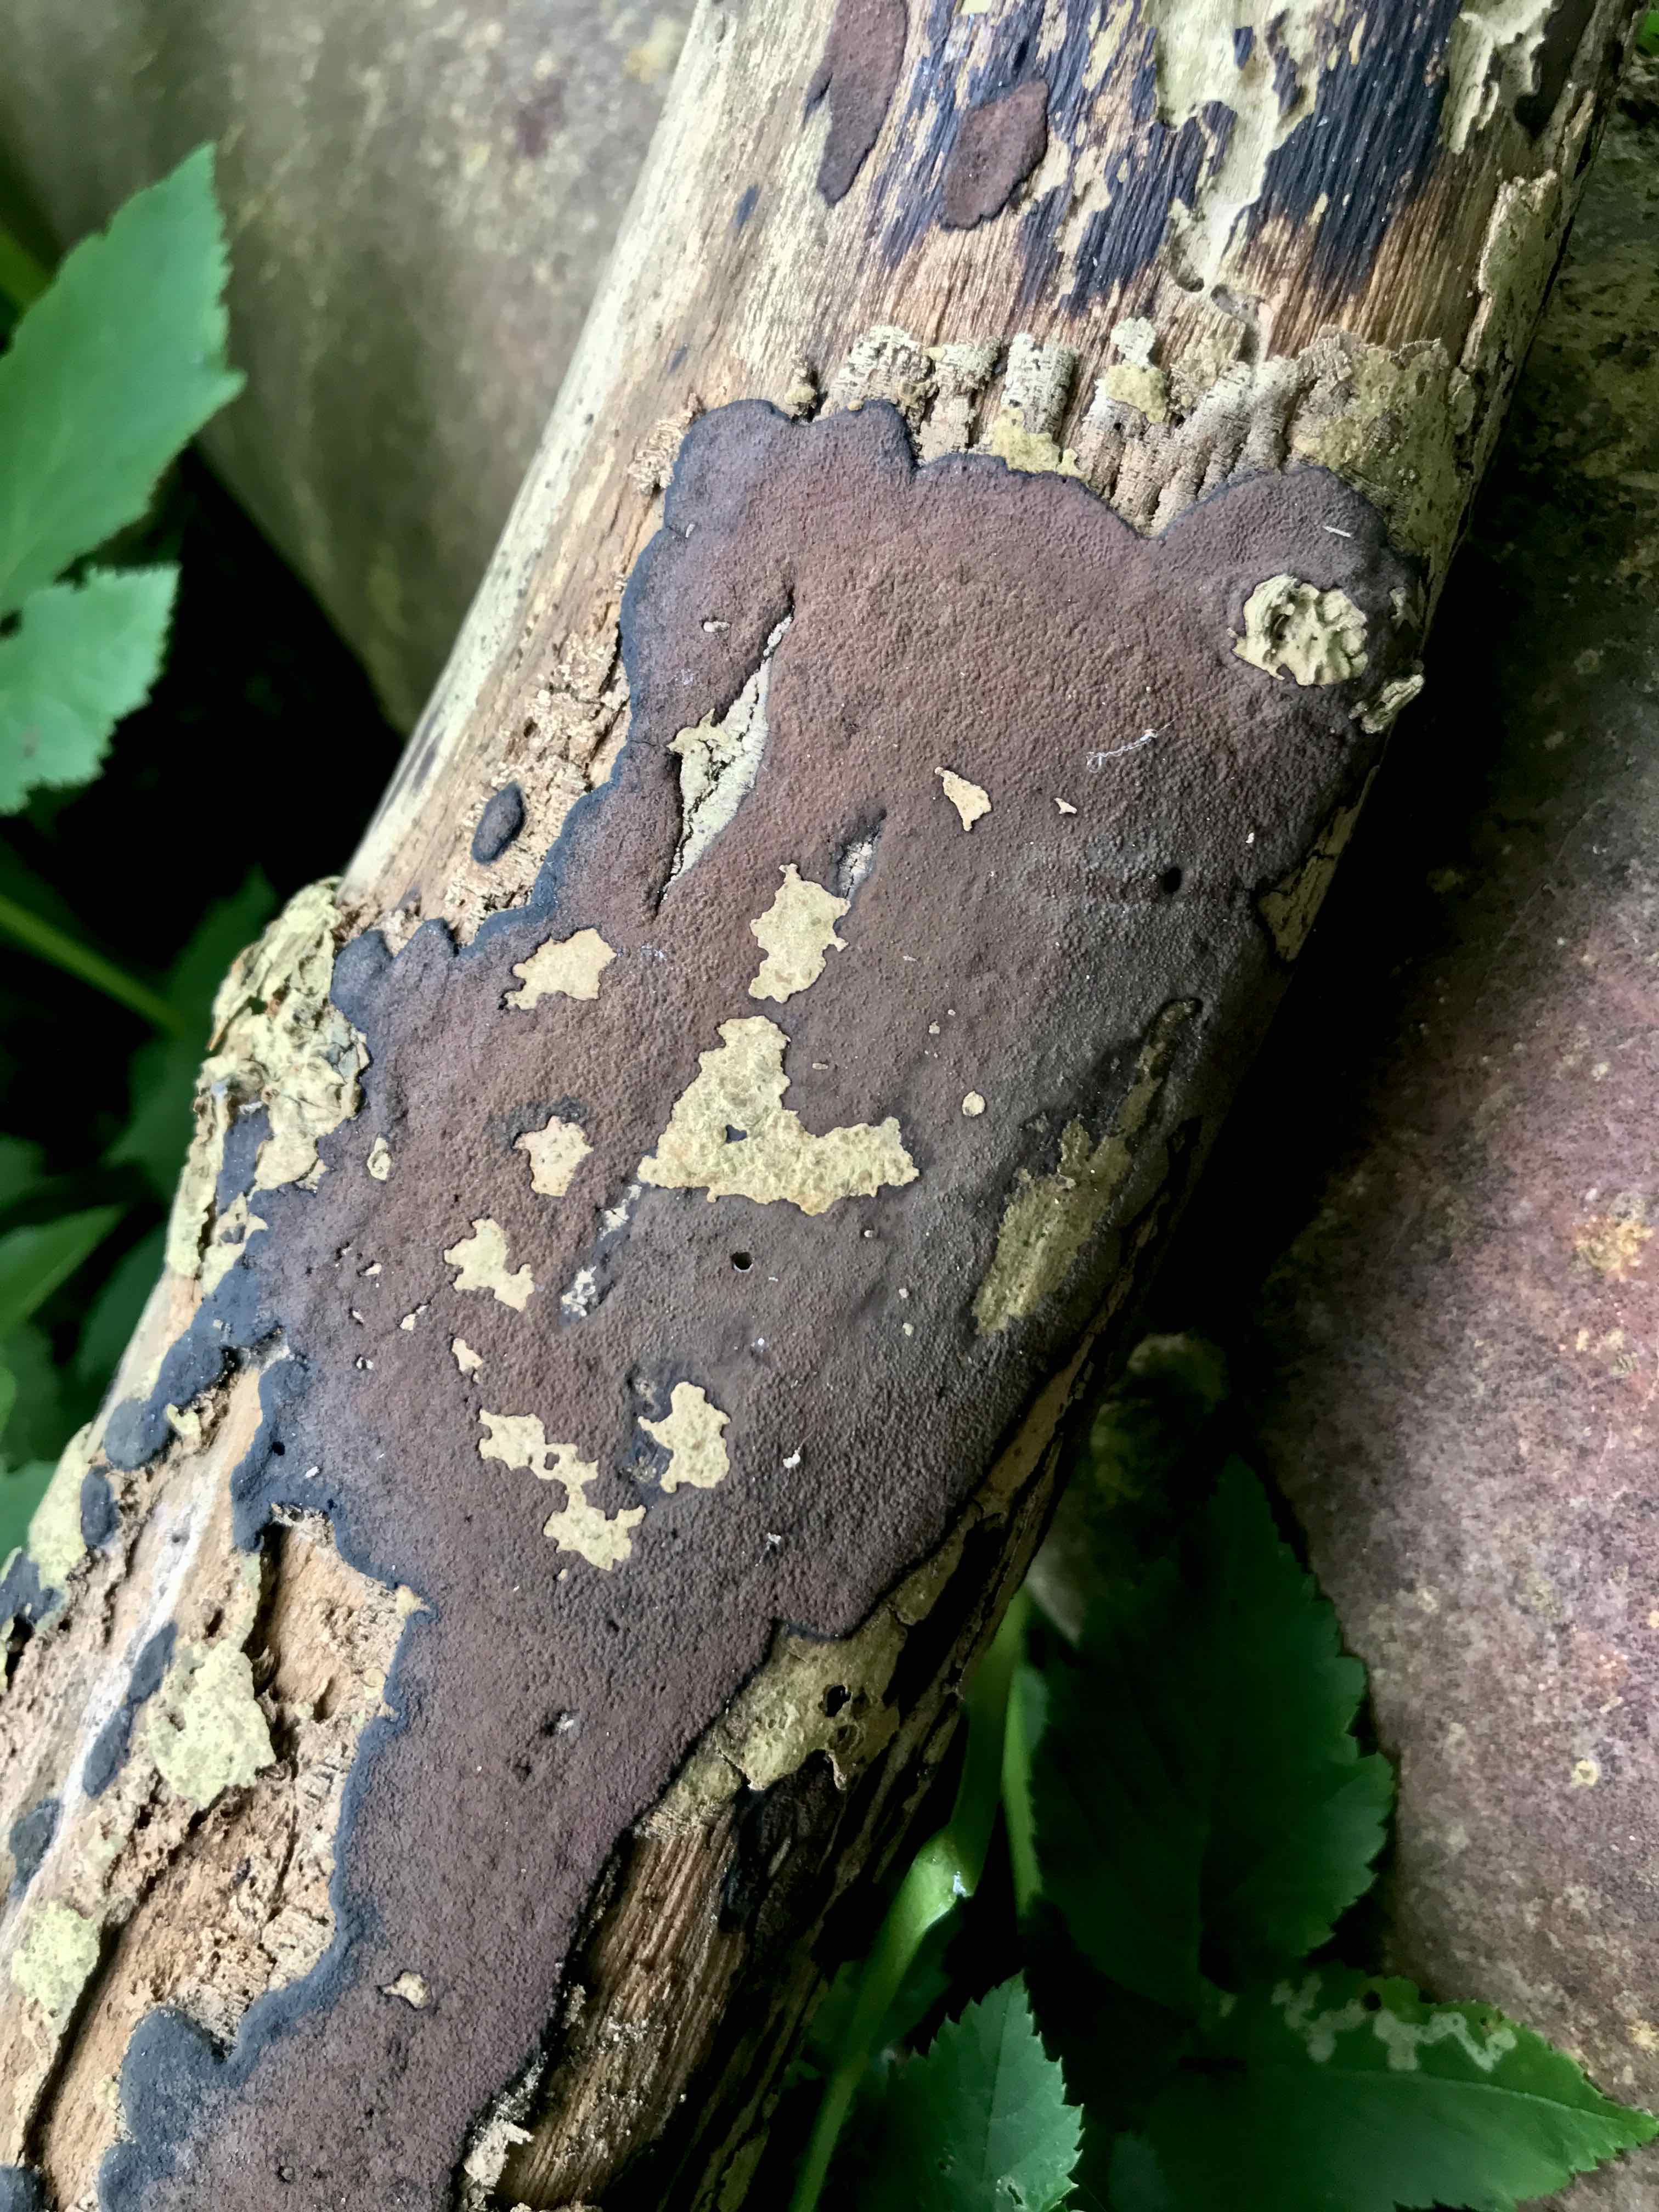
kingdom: Fungi
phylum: Ascomycota
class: Sordariomycetes
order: Xylariales
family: Hypoxylaceae
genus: Hypoxylon
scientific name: Hypoxylon petriniae
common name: nedsænket kulbær
